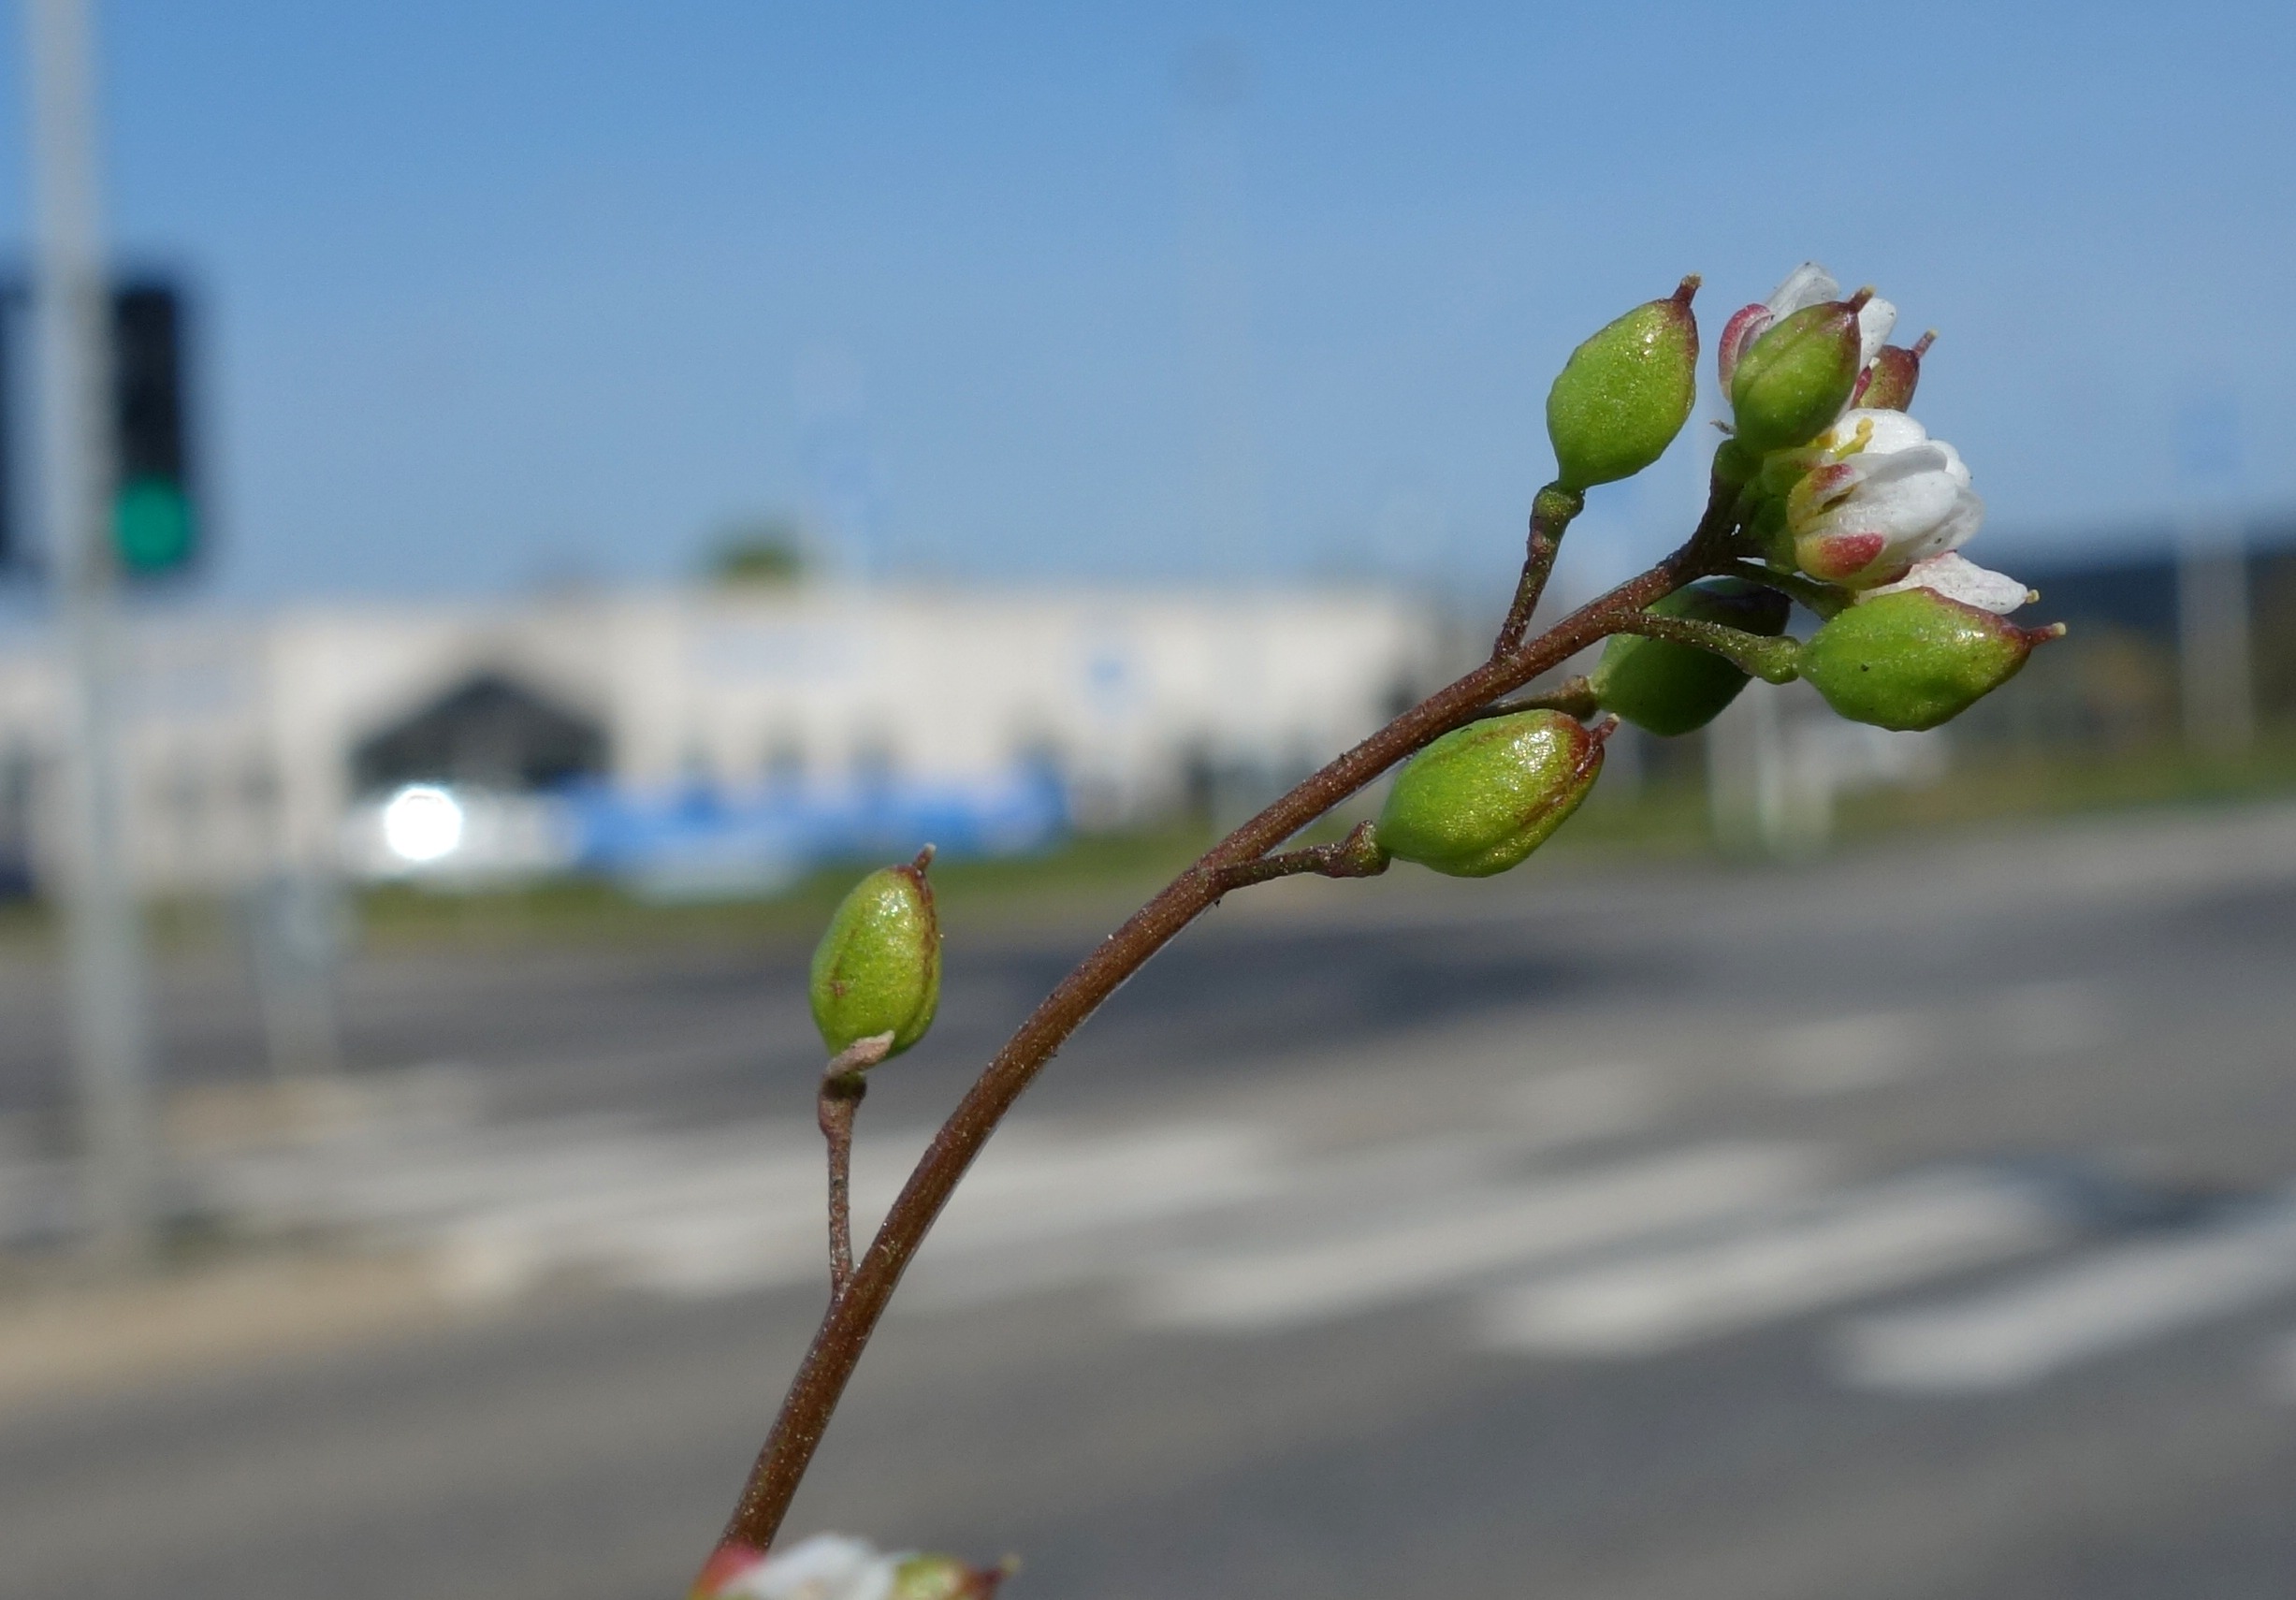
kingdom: Plantae
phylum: Tracheophyta
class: Magnoliopsida
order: Brassicales
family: Brassicaceae
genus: Cochlearia
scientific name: Cochlearia danica
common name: Dansk kokleare
